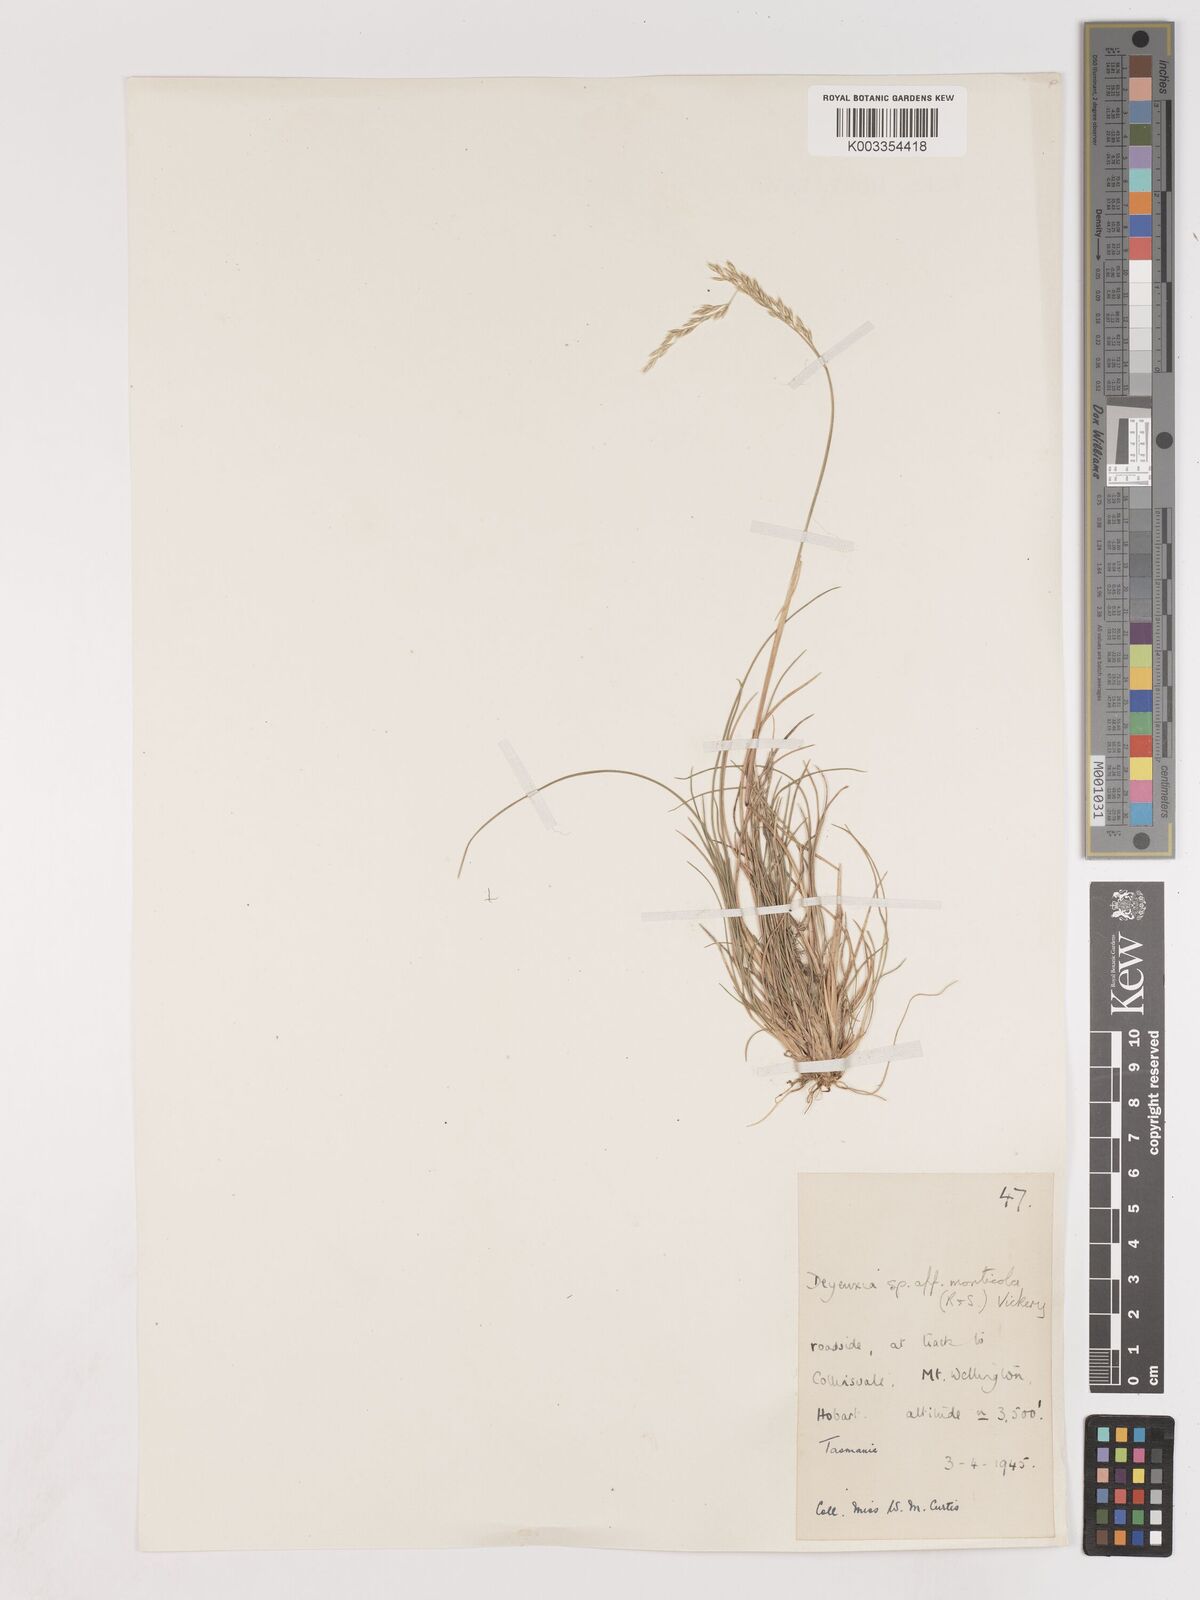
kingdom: Plantae
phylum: Tracheophyta
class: Liliopsida
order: Poales
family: Poaceae
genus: Calamagrostis
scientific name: Calamagrostis
